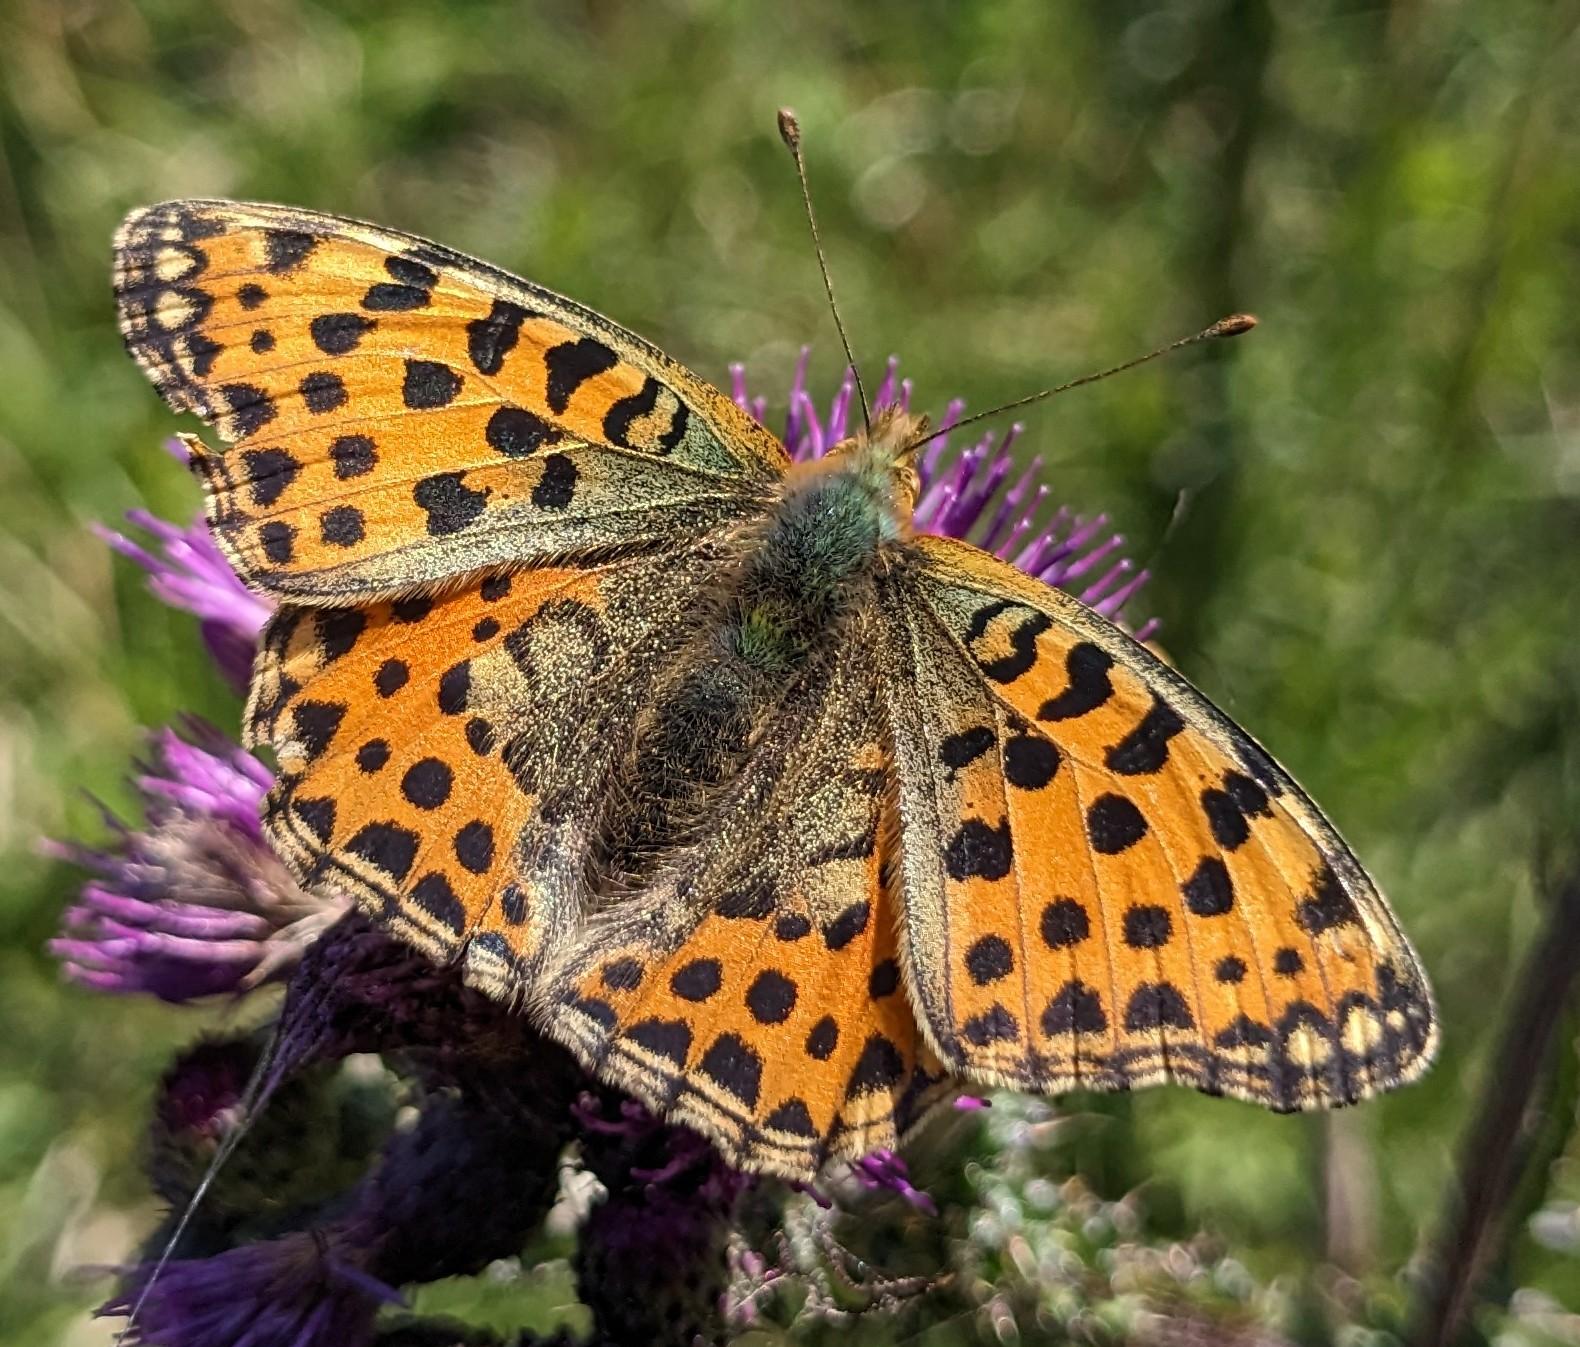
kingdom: Animalia
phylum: Arthropoda
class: Insecta
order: Lepidoptera
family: Nymphalidae
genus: Issoria
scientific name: Issoria lathonia
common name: Storplettet perlemorsommerfugl
